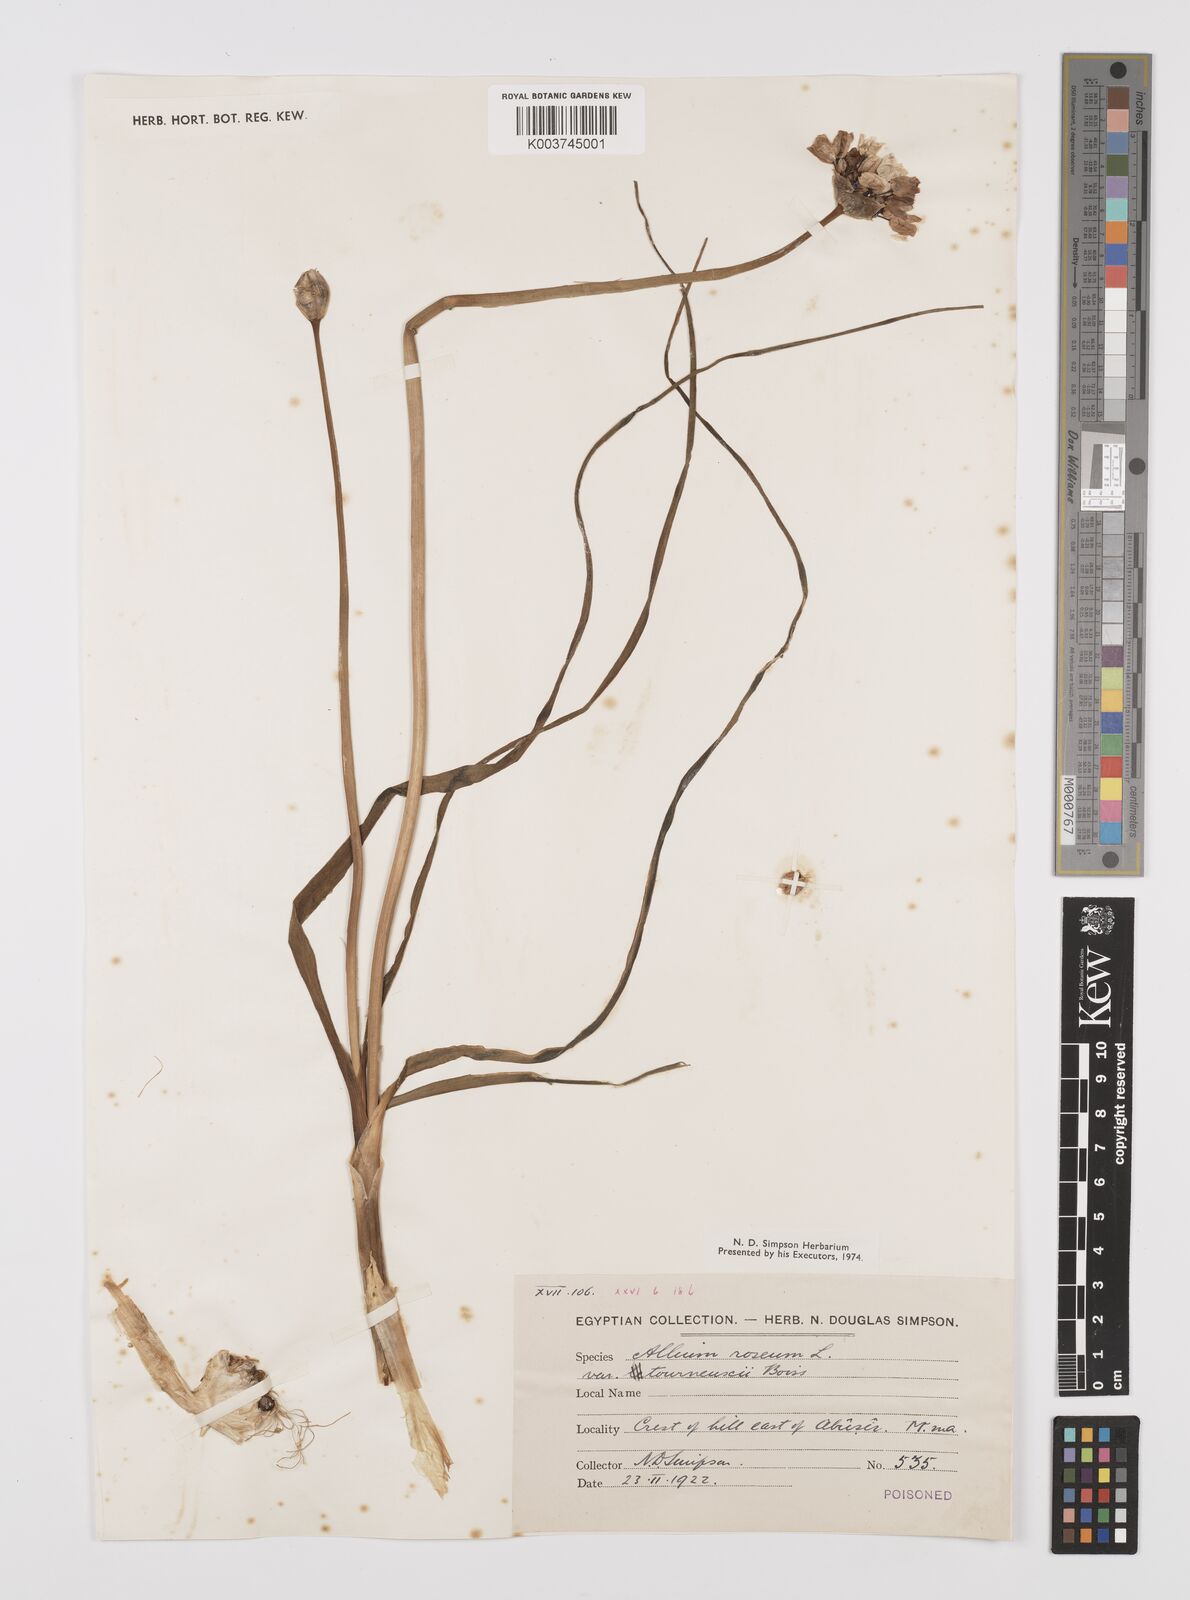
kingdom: Plantae
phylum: Tracheophyta
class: Liliopsida
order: Asparagales
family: Amaryllidaceae
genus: Allium
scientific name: Allium roseum
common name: Rosy garlic
